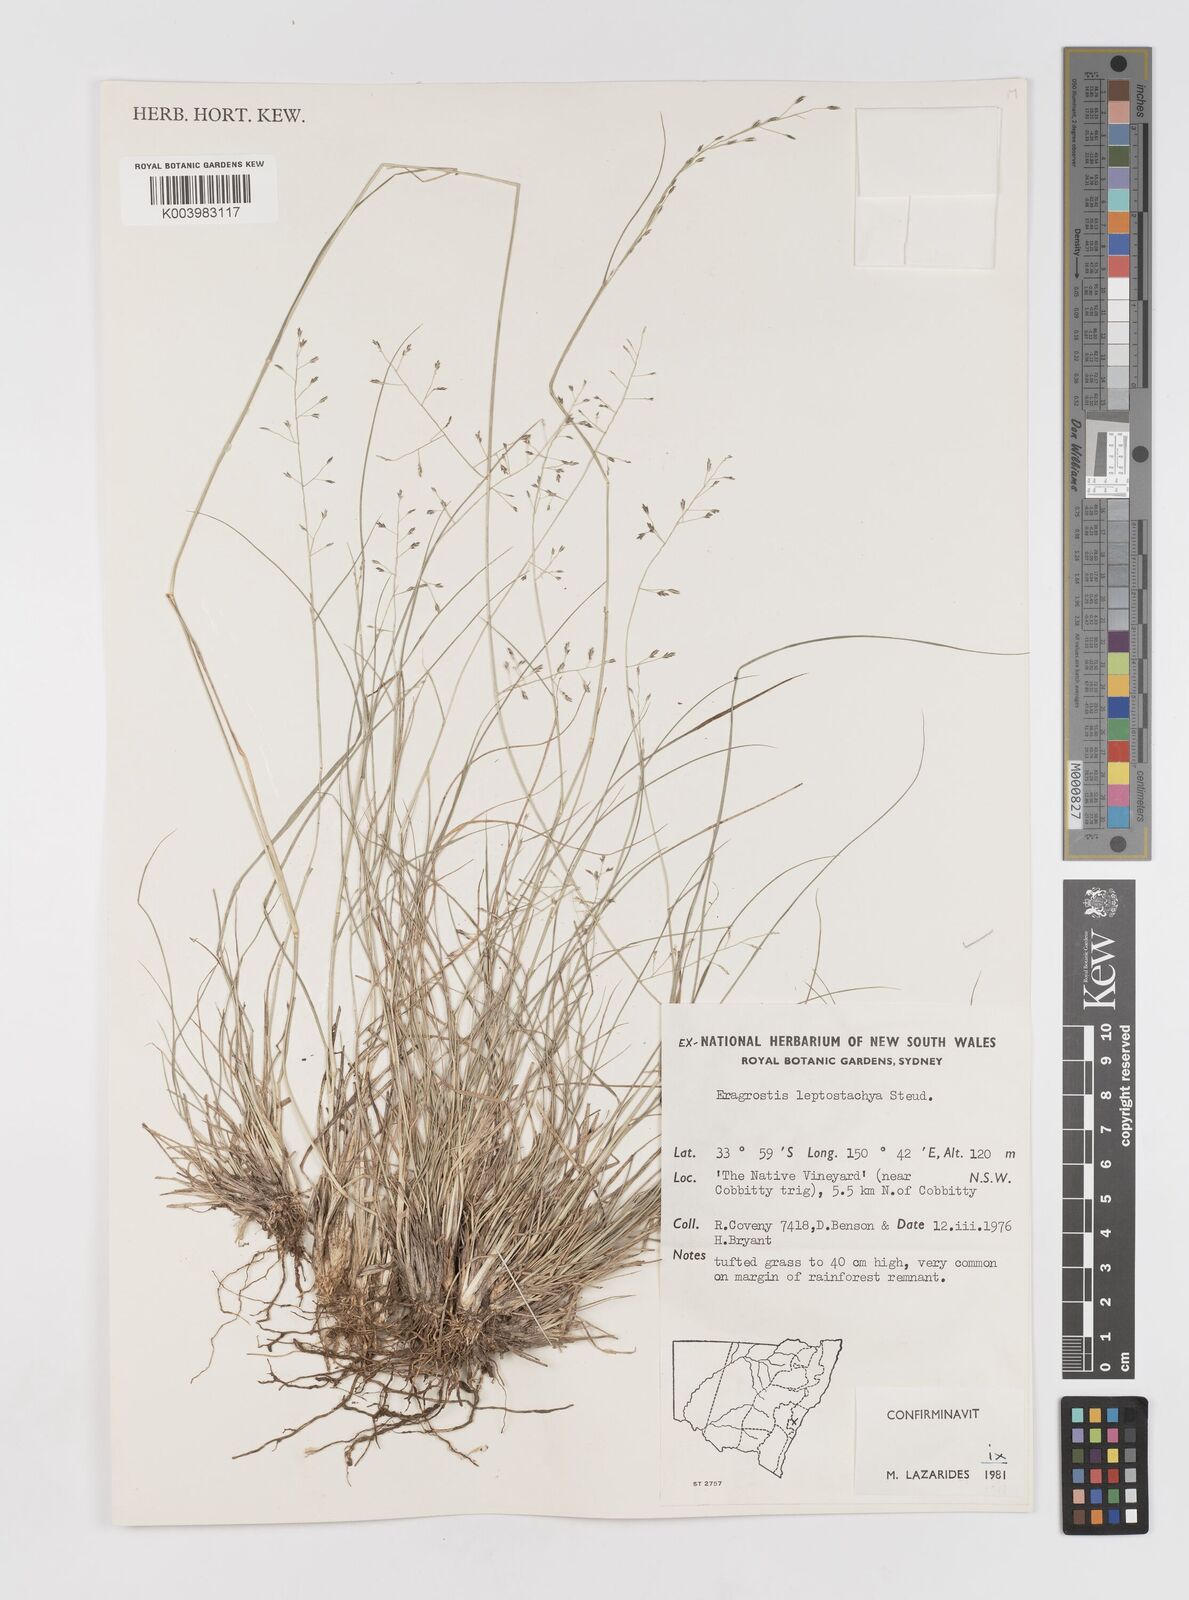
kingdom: Plantae
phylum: Tracheophyta
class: Liliopsida
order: Poales
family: Poaceae
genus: Eragrostis
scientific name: Eragrostis leptostachya
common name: Australian lovegrass
